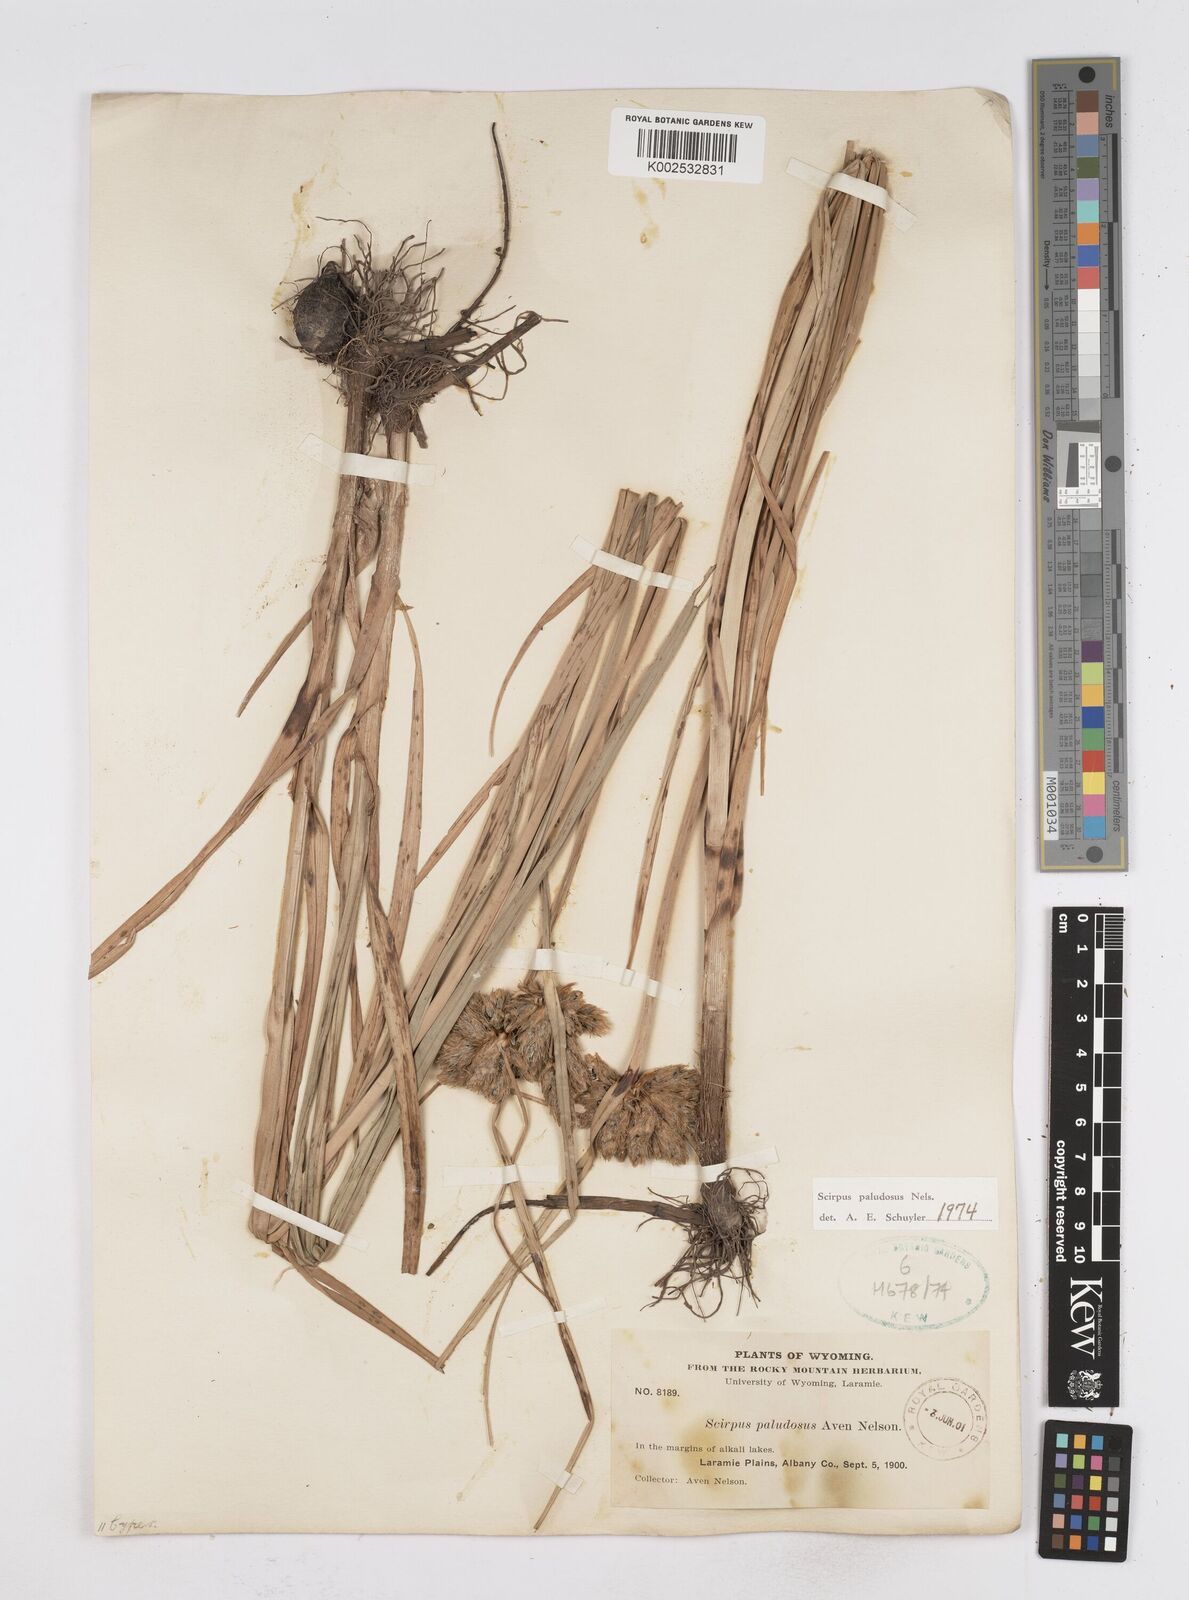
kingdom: Plantae
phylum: Tracheophyta
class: Liliopsida
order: Poales
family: Cyperaceae
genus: Bolboschoenus
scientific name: Bolboschoenus maritimus
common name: Sea club-rush
